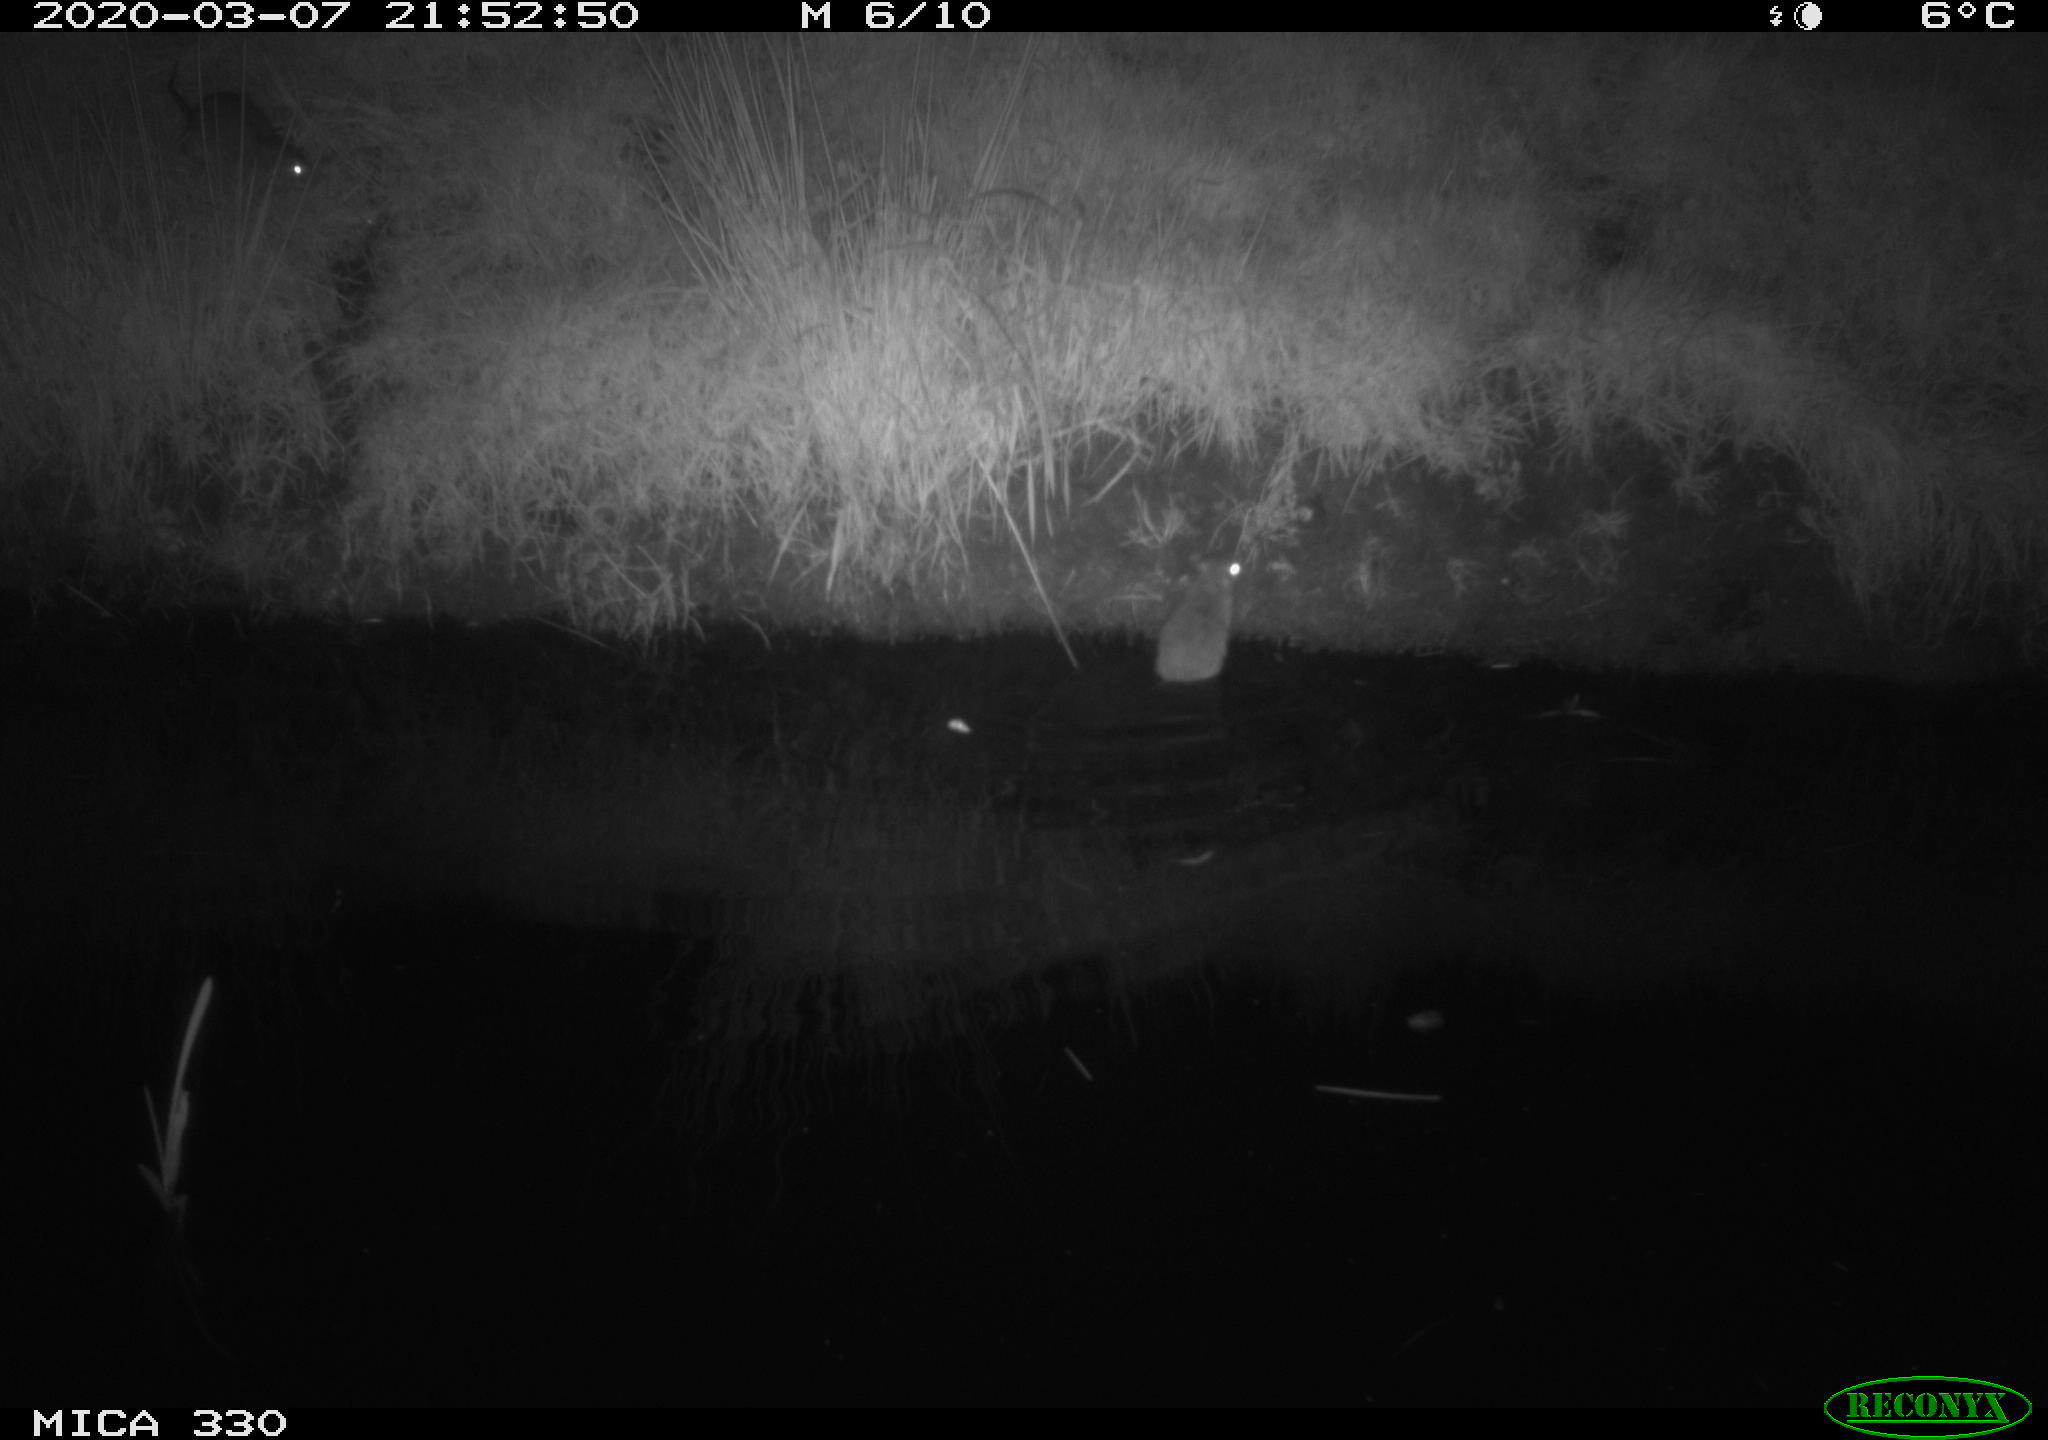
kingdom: Animalia
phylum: Chordata
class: Mammalia
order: Rodentia
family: Muridae
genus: Rattus
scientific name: Rattus norvegicus
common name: Brown rat
